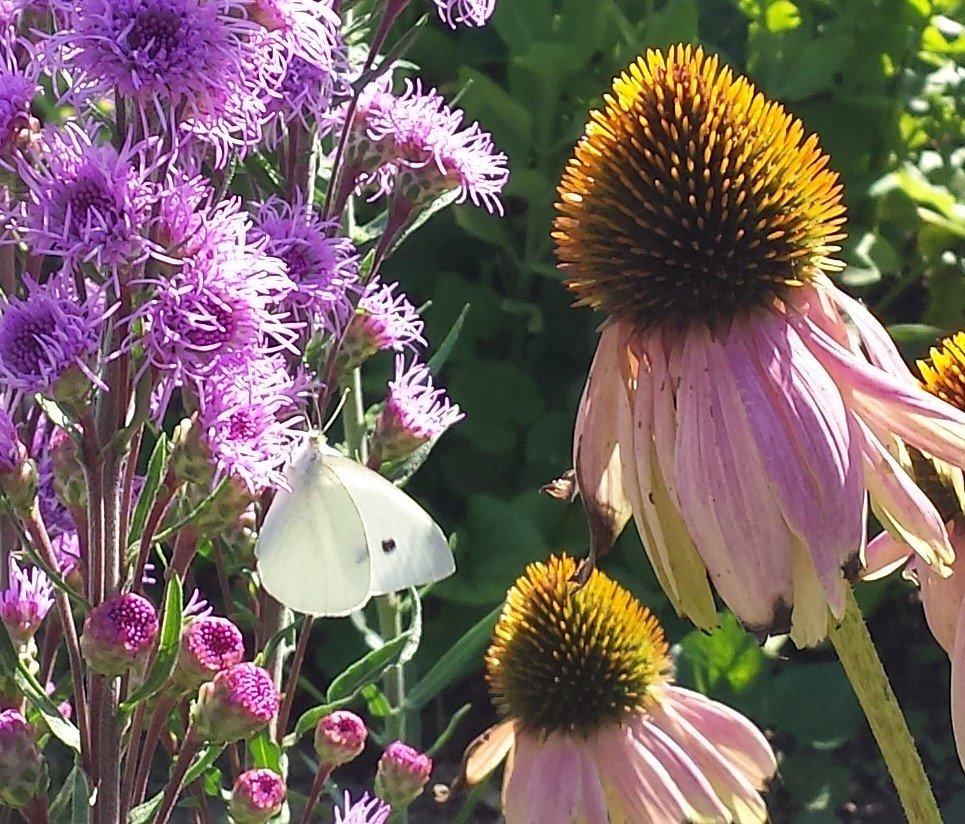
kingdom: Animalia
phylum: Arthropoda
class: Insecta
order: Lepidoptera
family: Pieridae
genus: Pieris
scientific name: Pieris rapae
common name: Cabbage White
